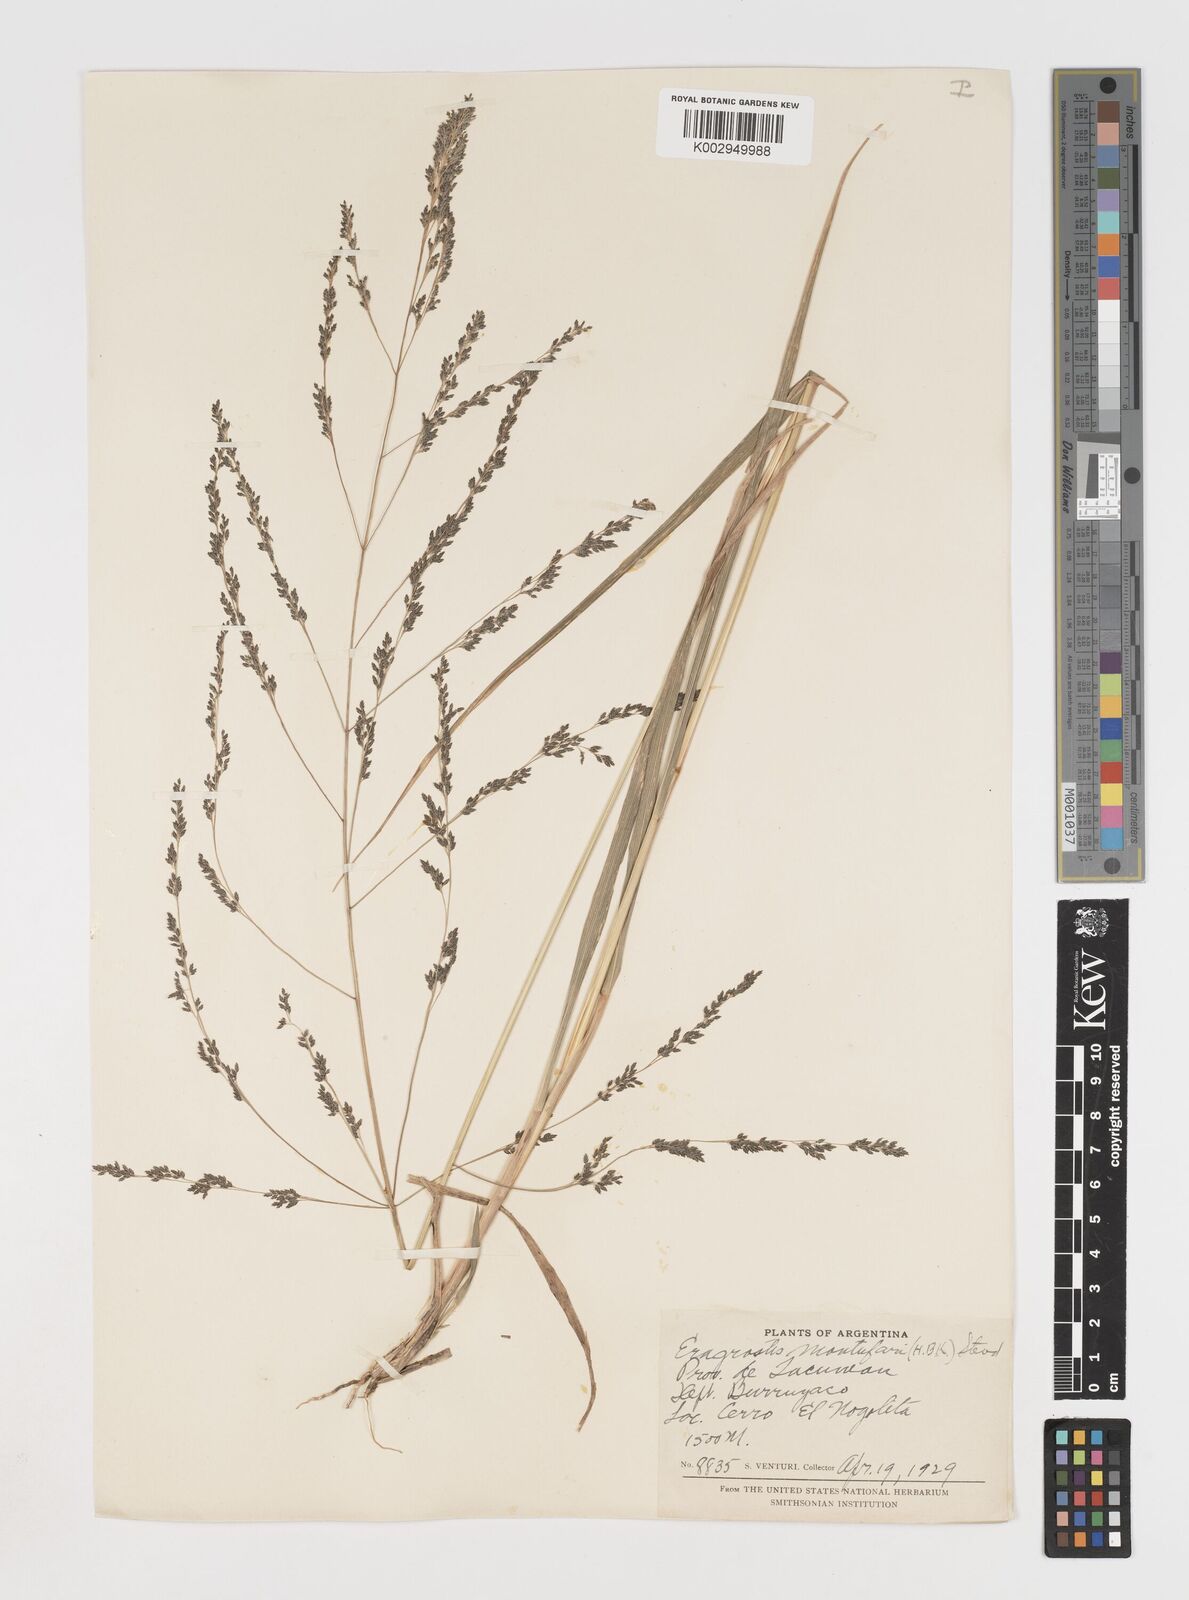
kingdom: Plantae
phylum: Tracheophyta
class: Liliopsida
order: Poales
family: Poaceae
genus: Eragrostis
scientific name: Eragrostis pastoensis
